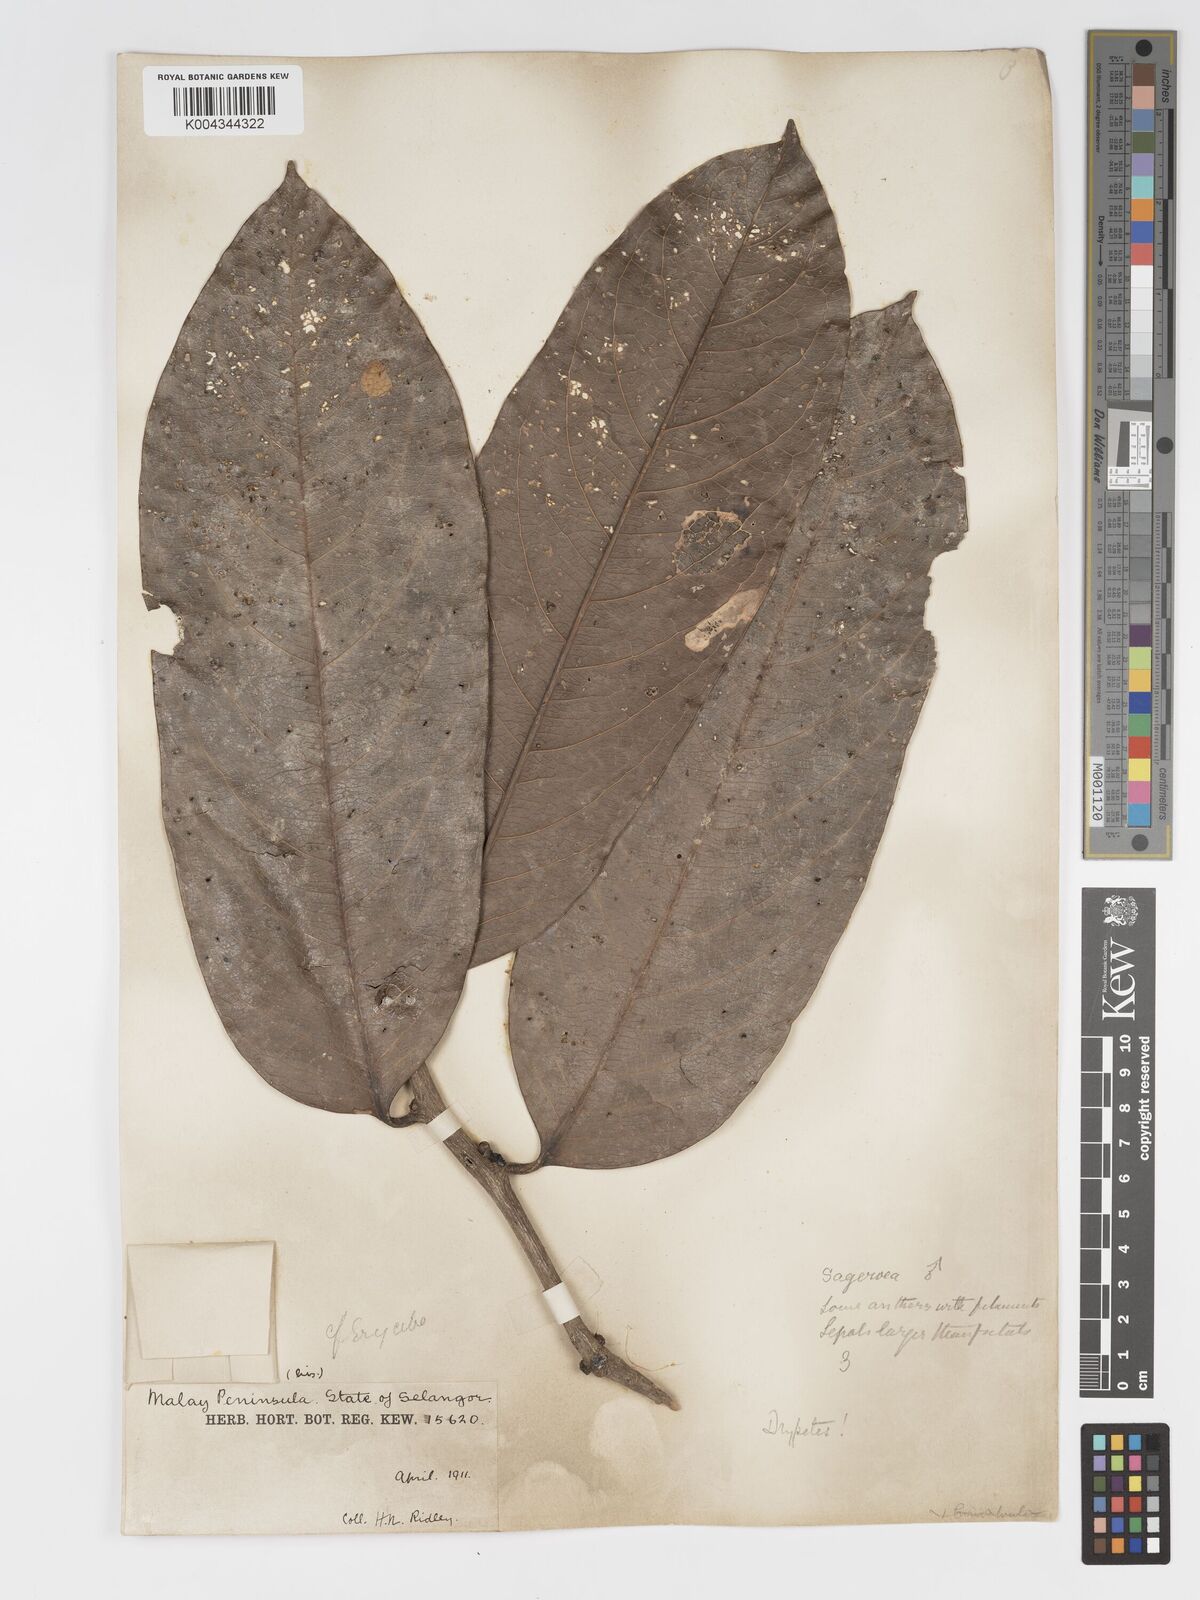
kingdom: Plantae
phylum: Tracheophyta
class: Magnoliopsida
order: Malpighiales
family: Putranjivaceae
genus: Drypetes
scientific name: Drypetes longifolia
